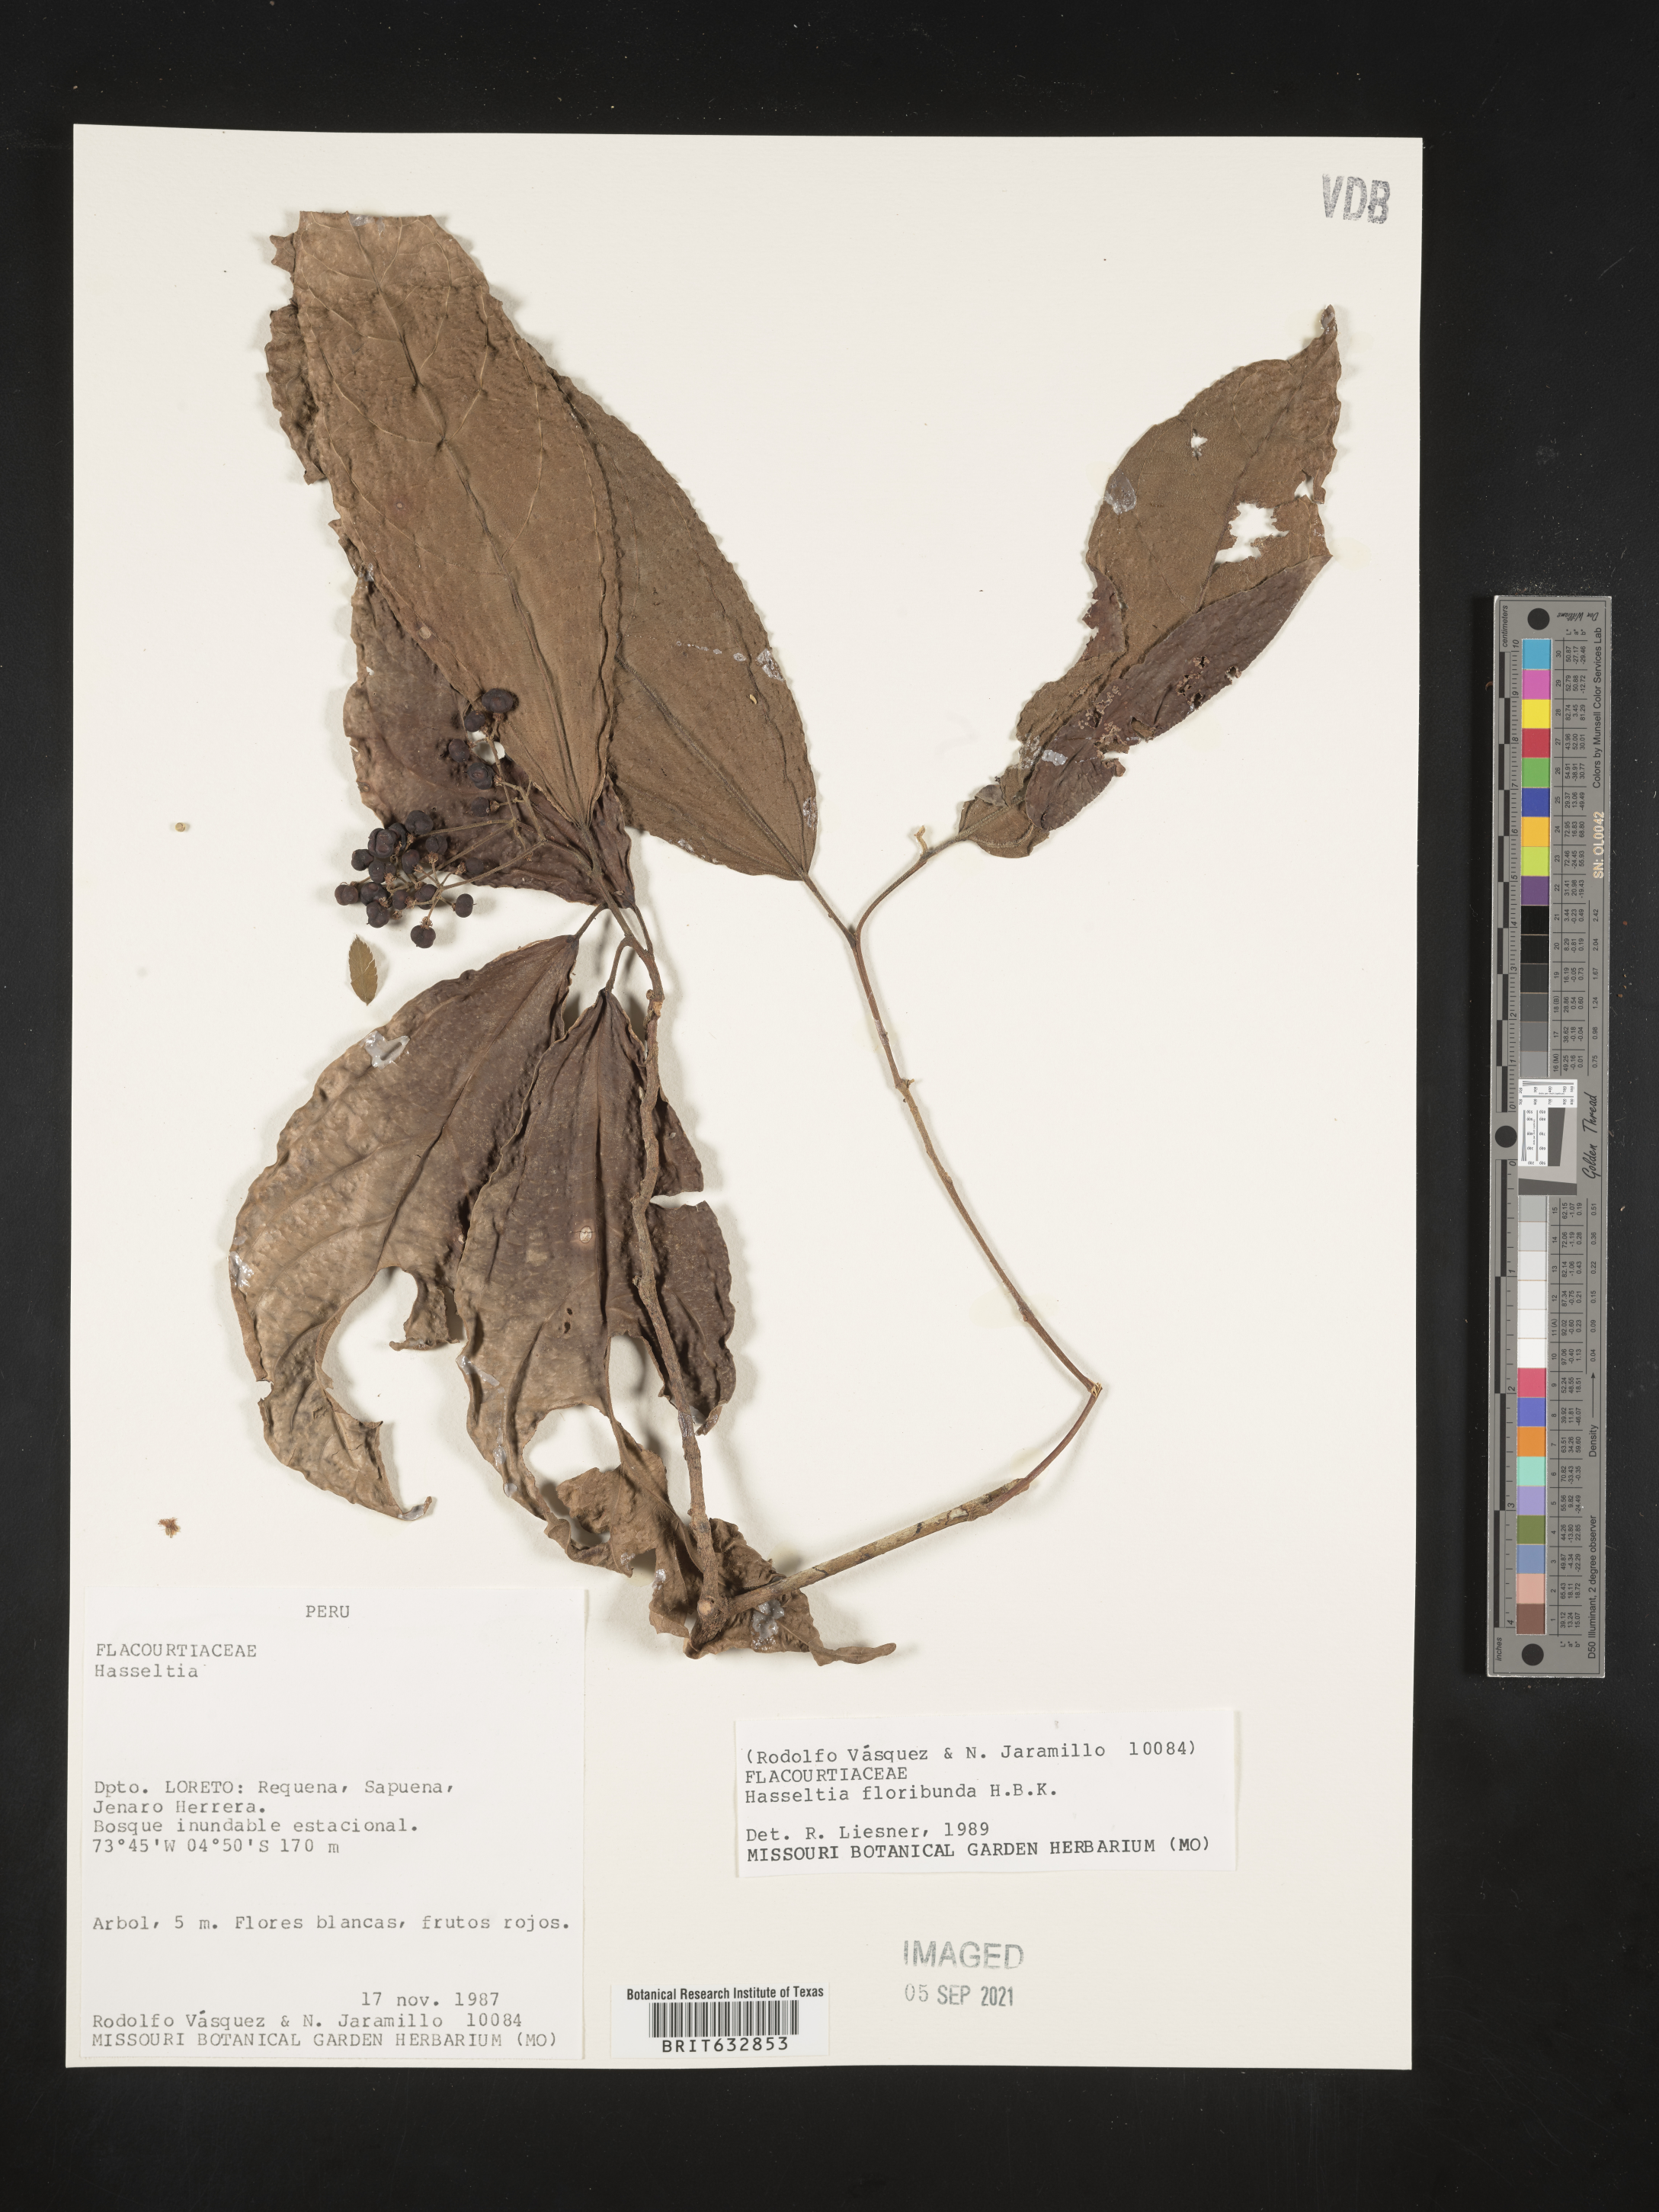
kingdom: Plantae
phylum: Tracheophyta
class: Magnoliopsida
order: Malpighiales
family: Salicaceae
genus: Hasseltia
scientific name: Hasseltia
